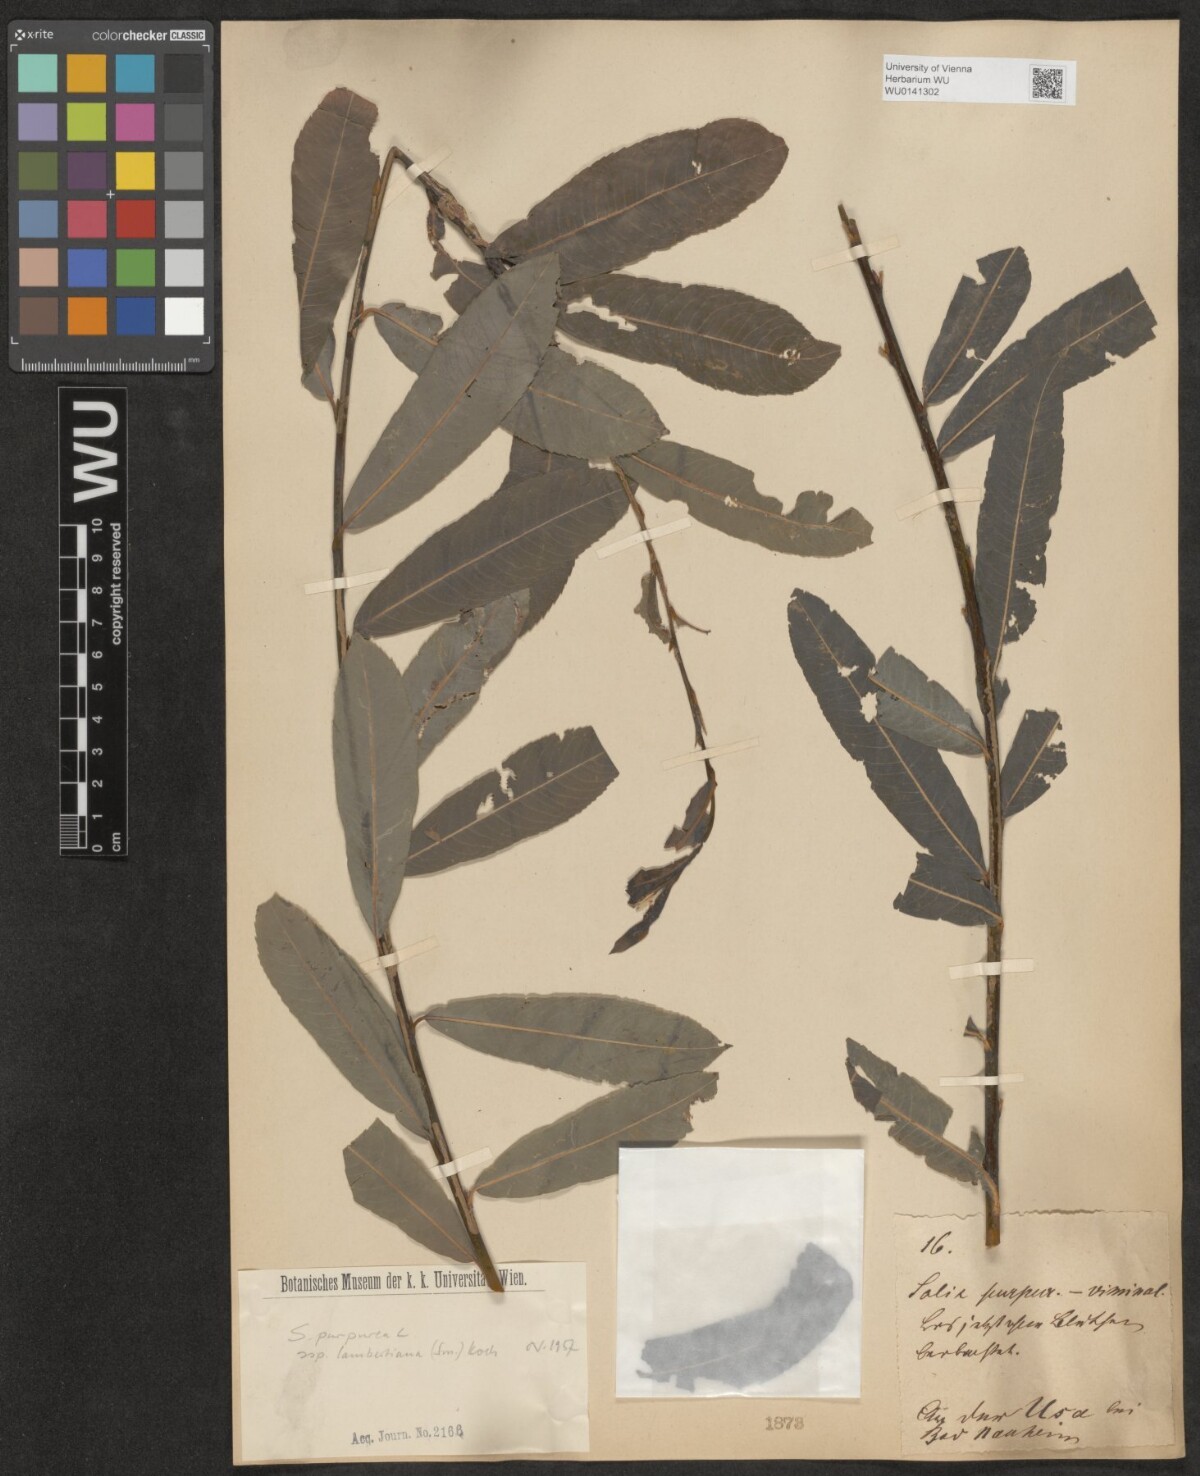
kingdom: Plantae
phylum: Tracheophyta
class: Magnoliopsida
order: Malpighiales
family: Salicaceae
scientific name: Salicaceae
